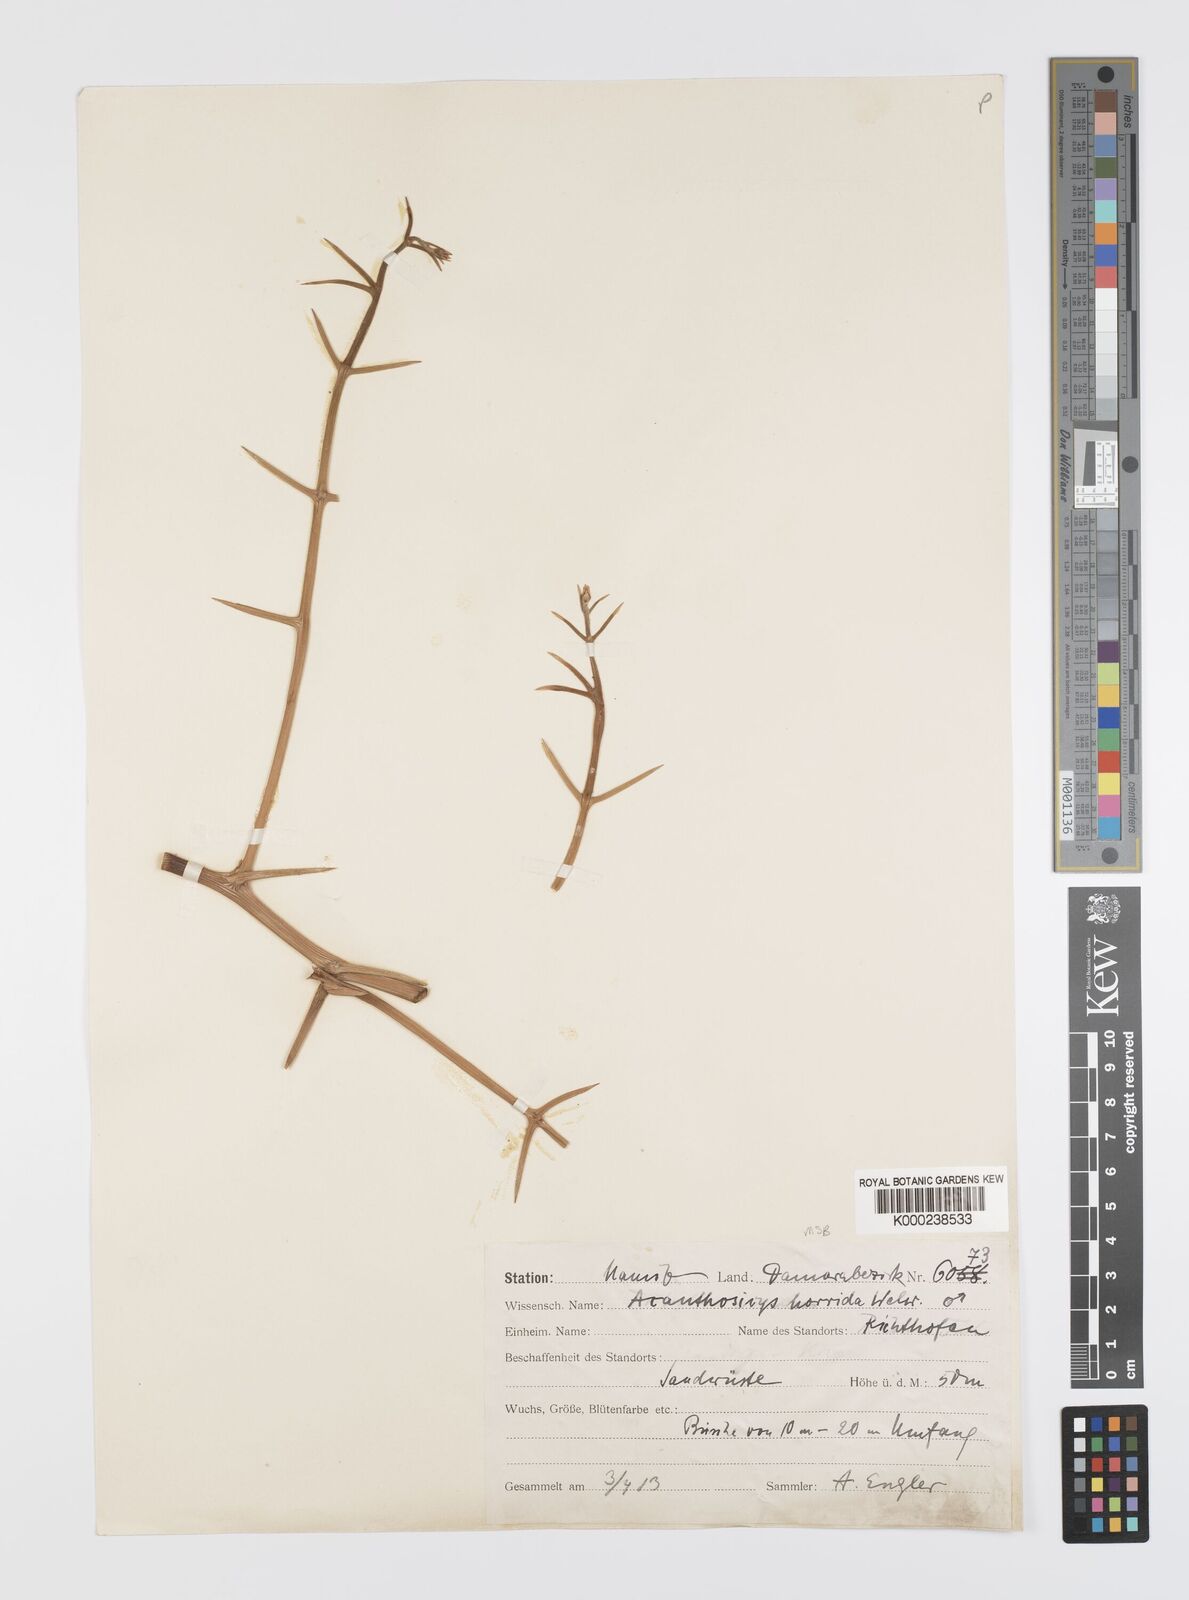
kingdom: Plantae
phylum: Tracheophyta
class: Magnoliopsida
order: Cucurbitales
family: Cucurbitaceae
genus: Acanthosicyos
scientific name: Acanthosicyos horridus
